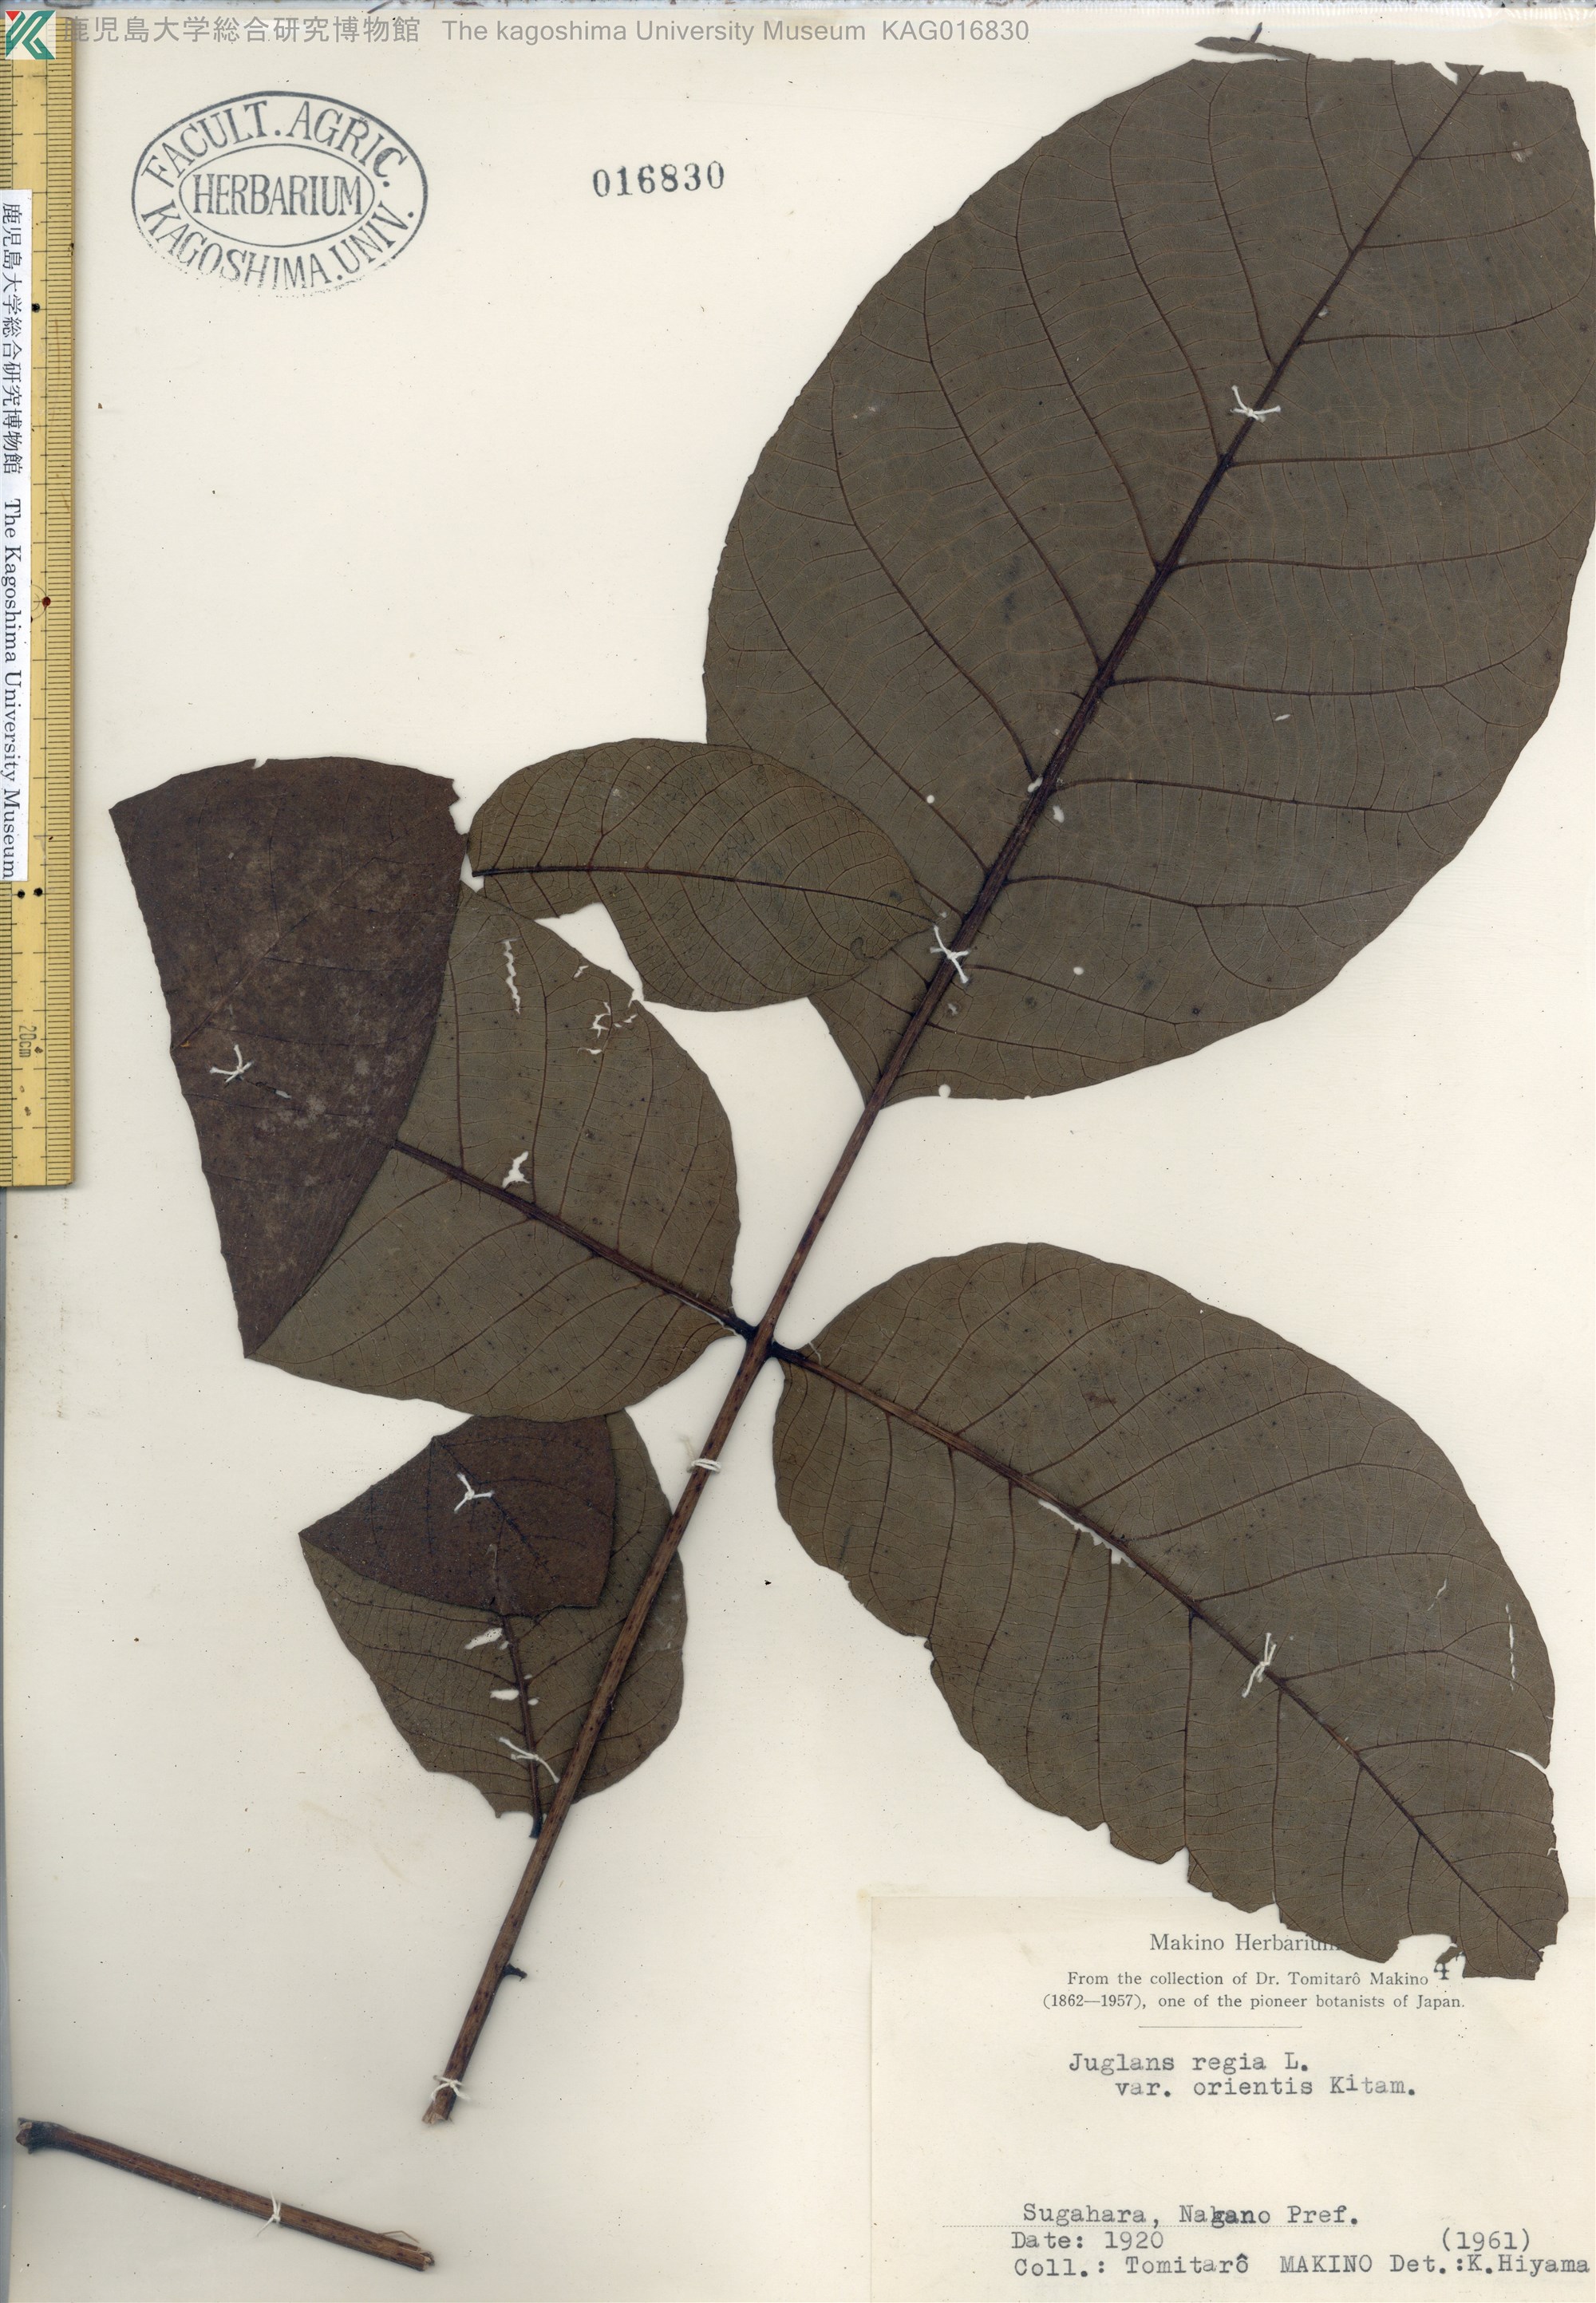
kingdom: Plantae
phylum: Tracheophyta
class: Magnoliopsida
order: Fagales
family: Juglandaceae
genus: Juglans
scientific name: Juglans regia
